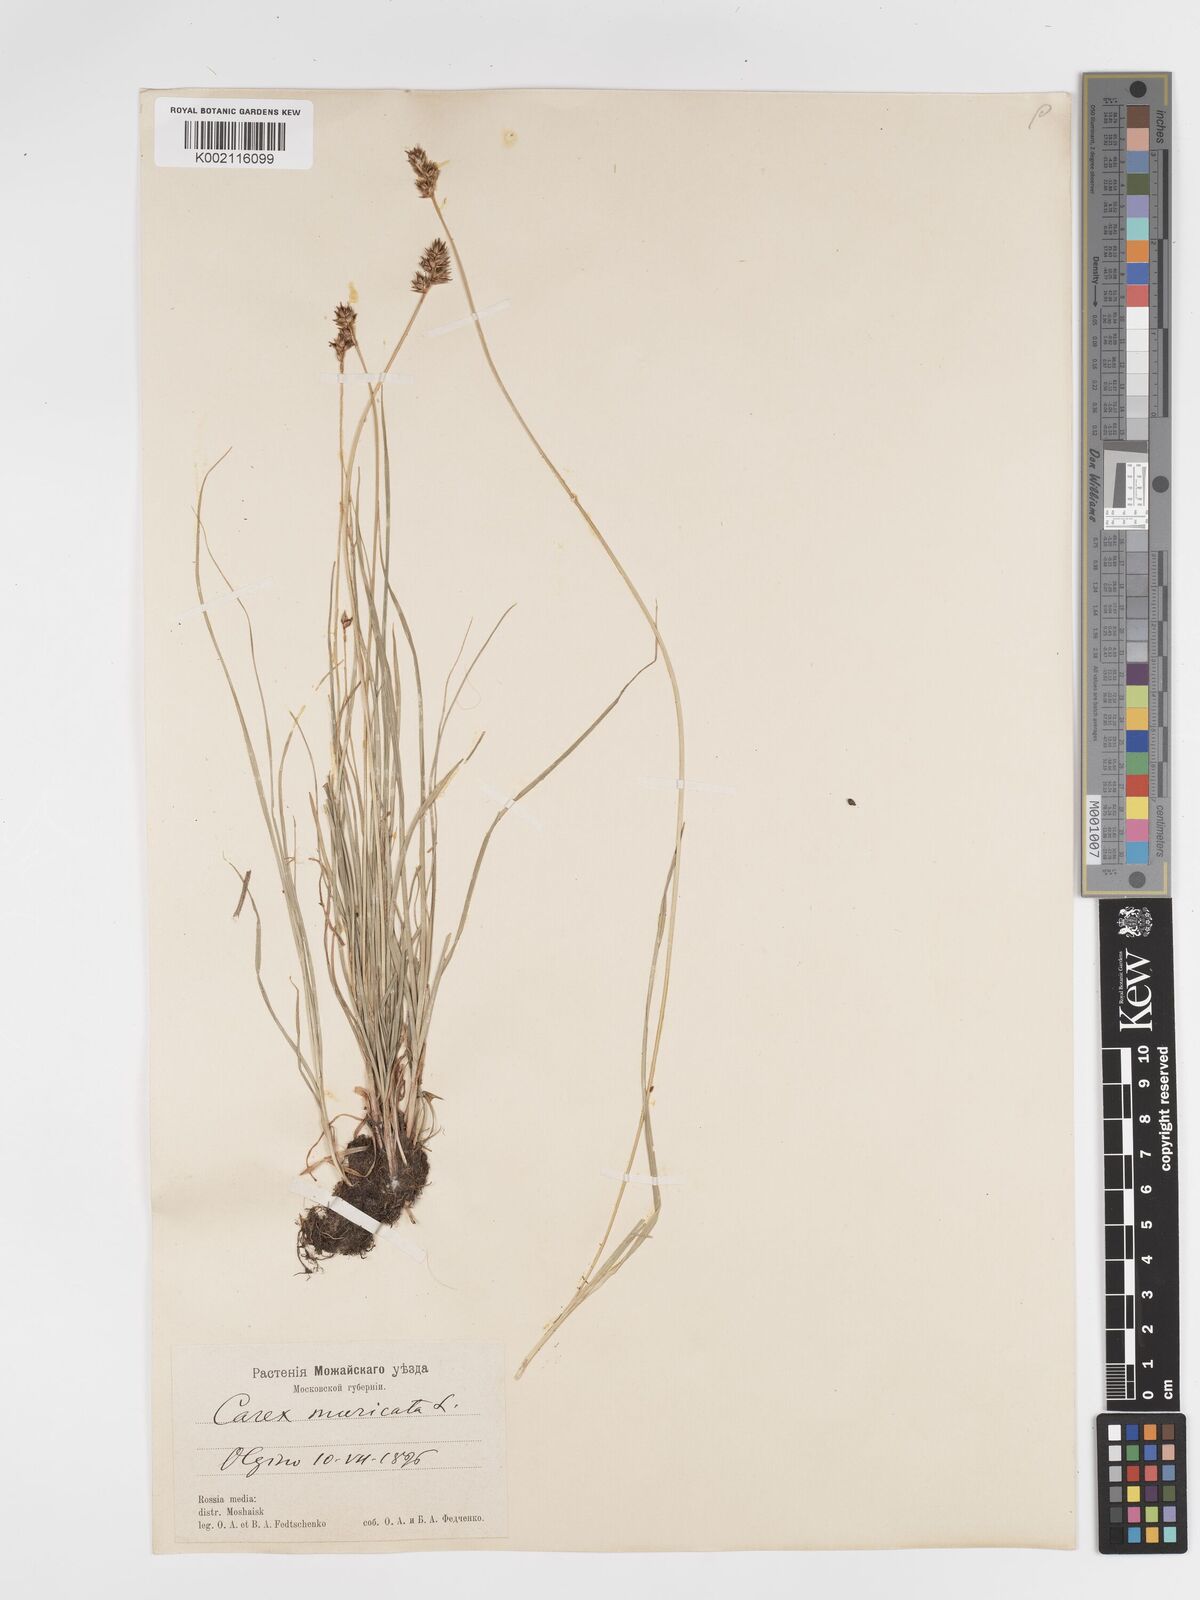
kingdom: Plantae
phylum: Tracheophyta
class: Liliopsida
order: Poales
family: Cyperaceae
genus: Carex
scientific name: Carex spicata
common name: Spiked sedge
